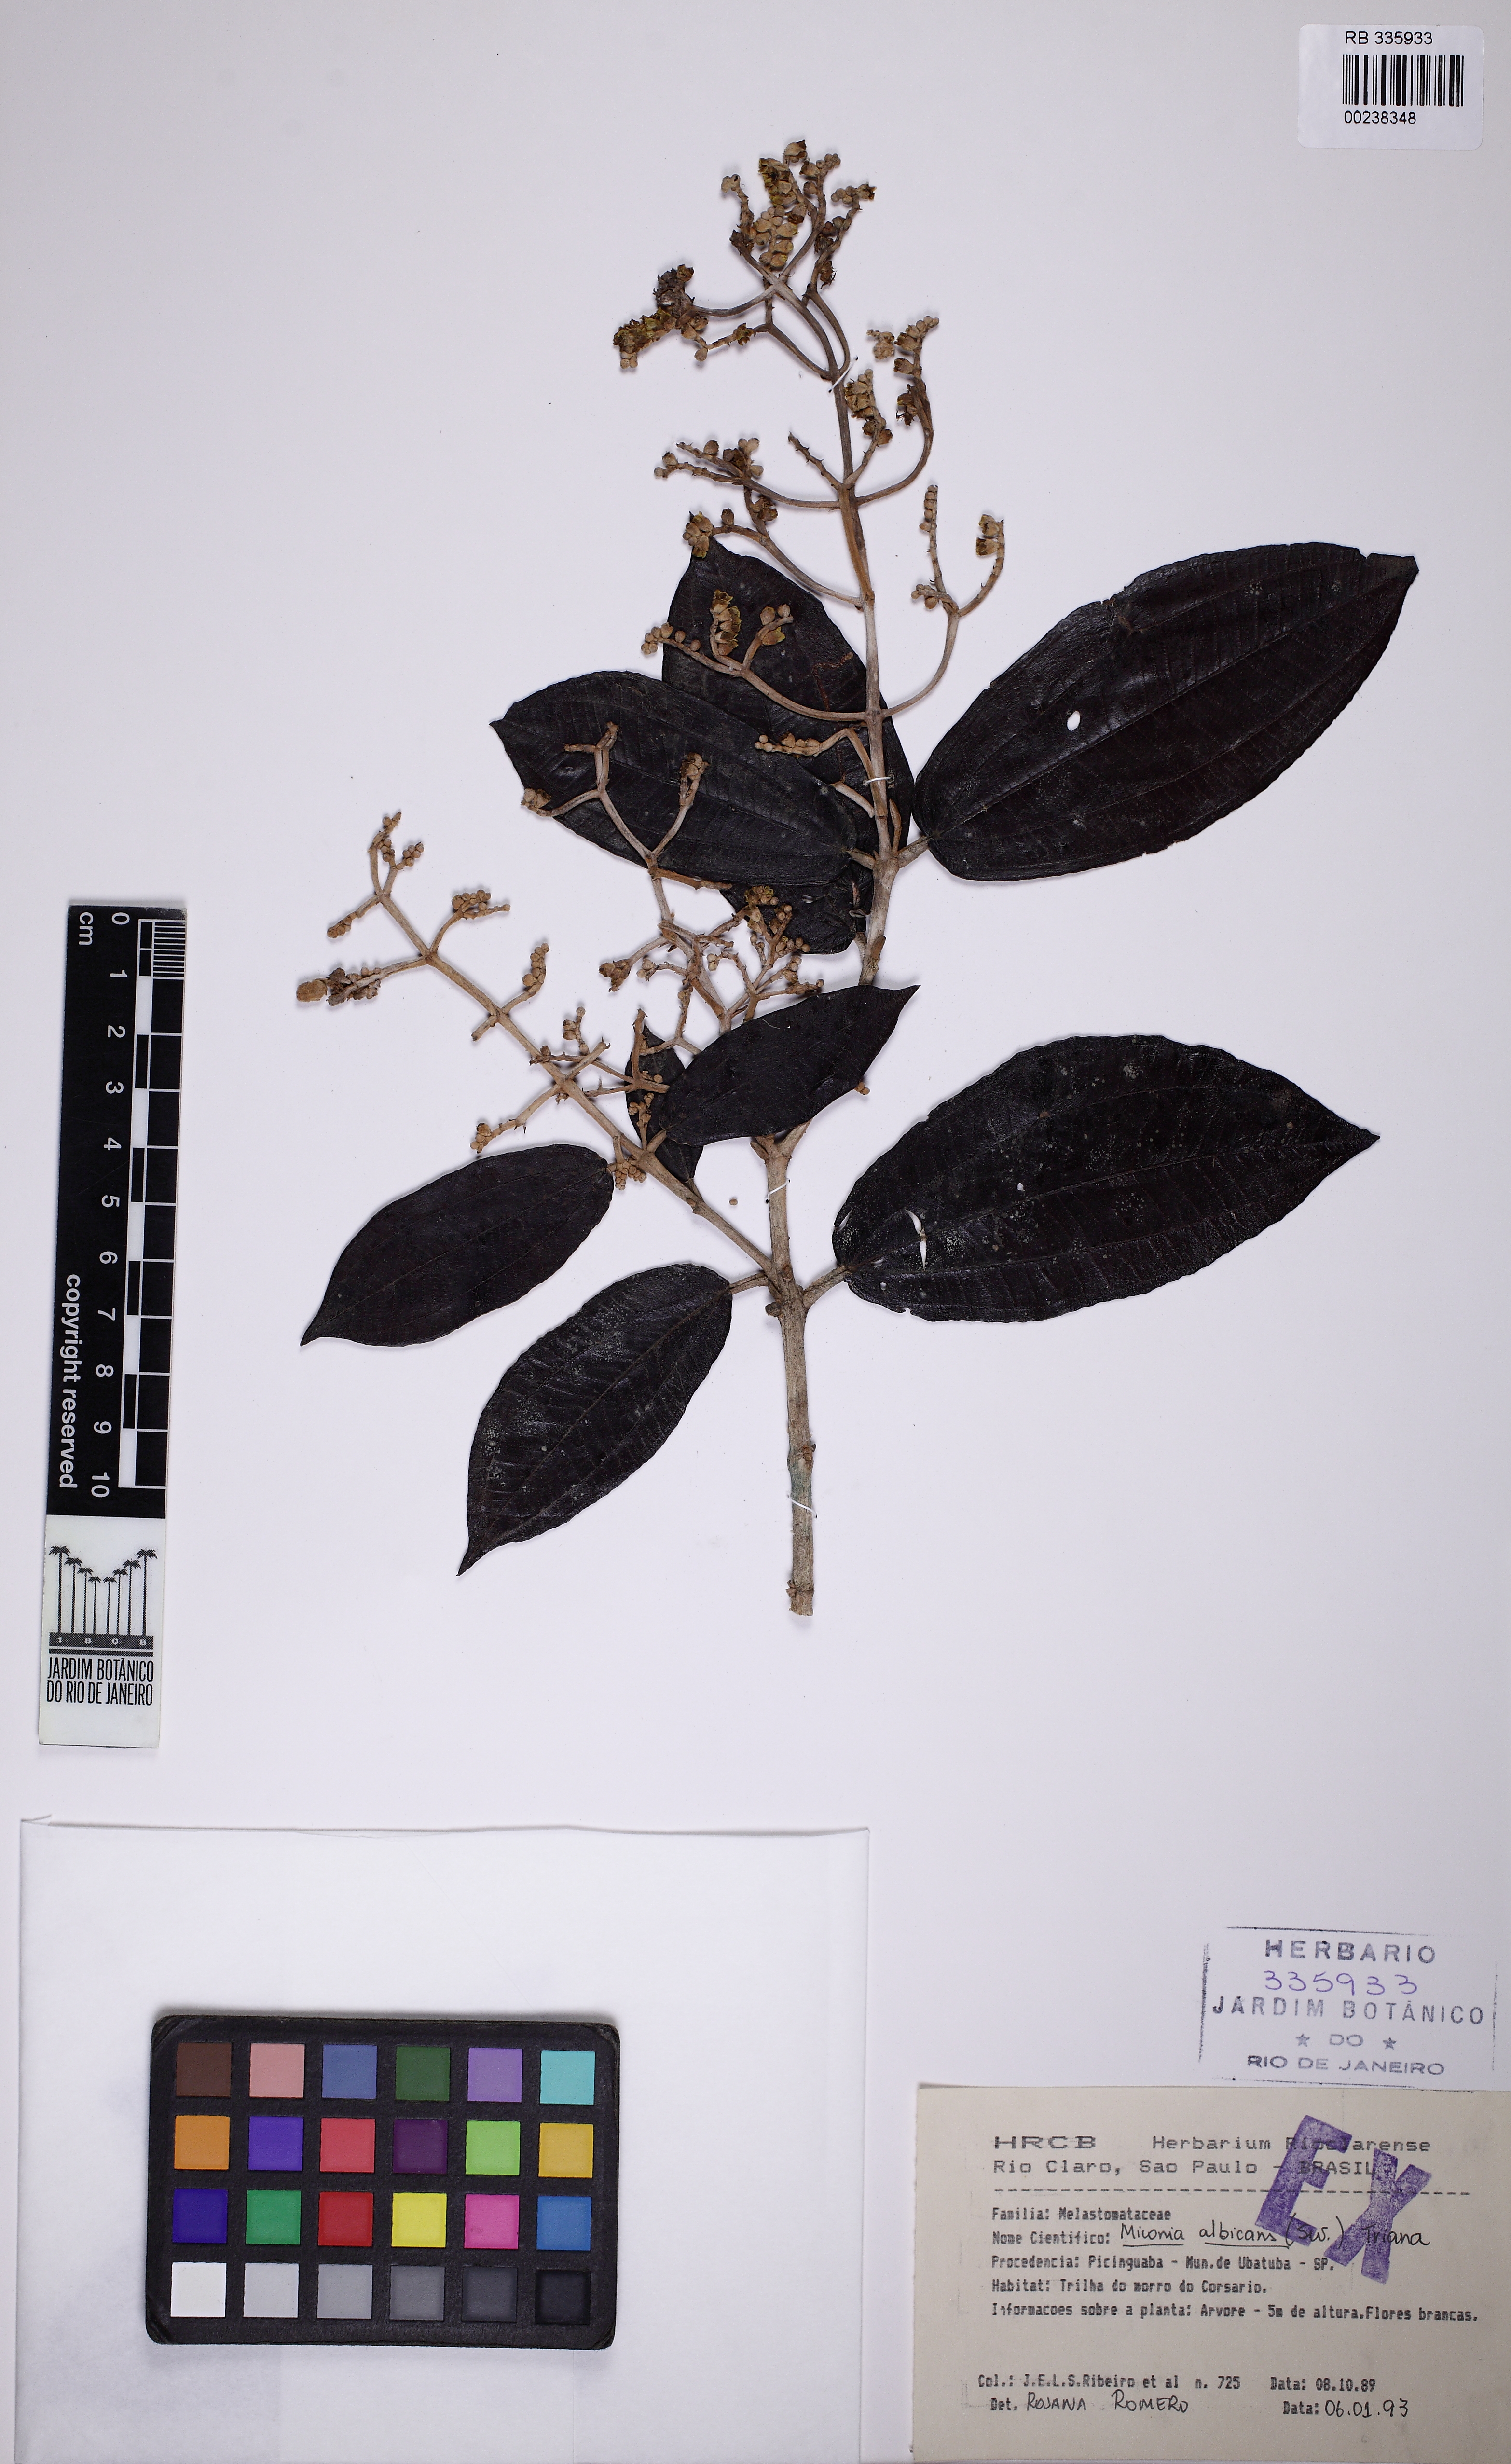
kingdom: Plantae
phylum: Tracheophyta
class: Magnoliopsida
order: Myrtales
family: Melastomataceae
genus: Miconia
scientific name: Miconia albicans
